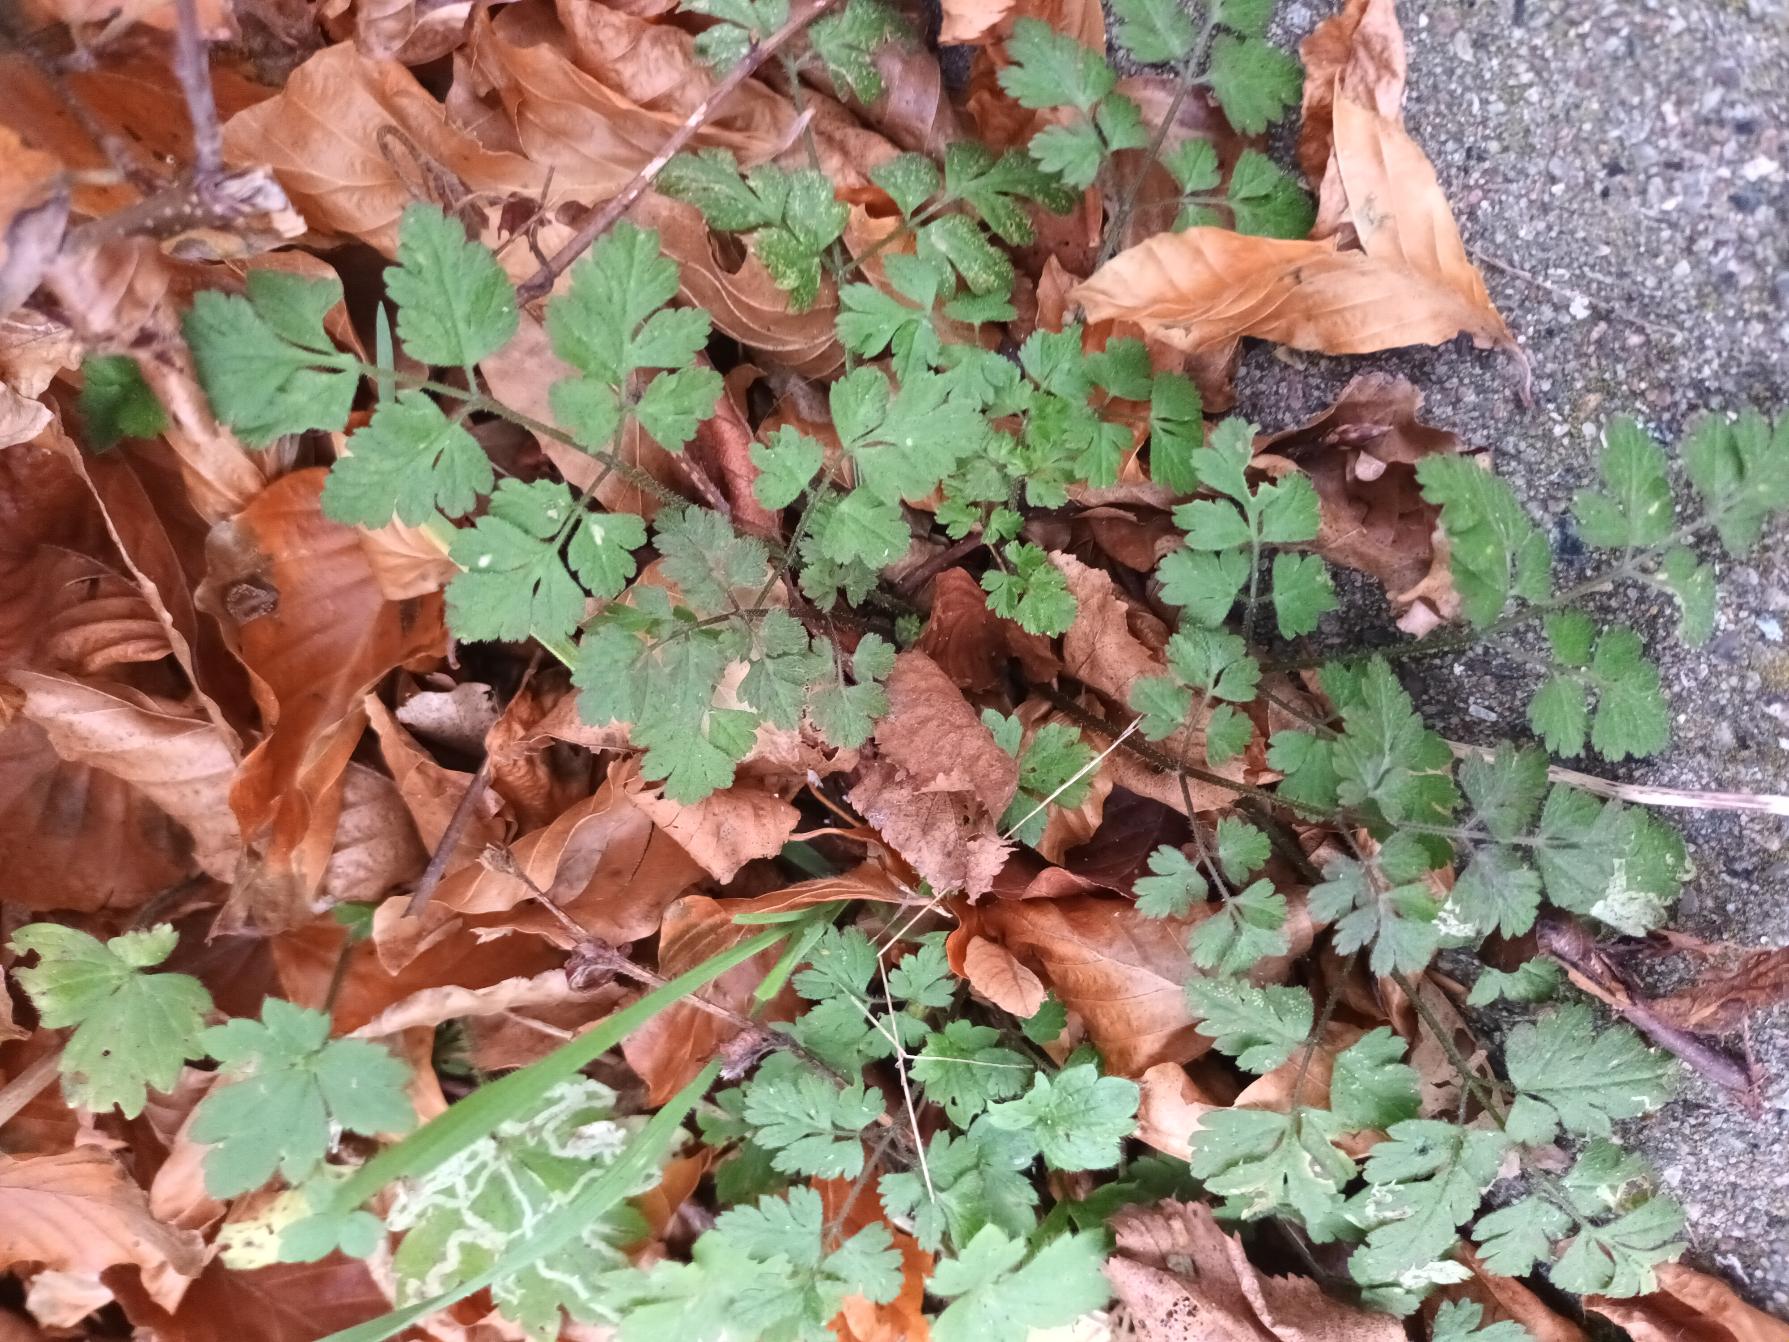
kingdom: Plantae
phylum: Tracheophyta
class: Magnoliopsida
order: Apiales
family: Apiaceae
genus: Chaerophyllum
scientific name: Chaerophyllum temulum
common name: Almindelig hulsvøb
